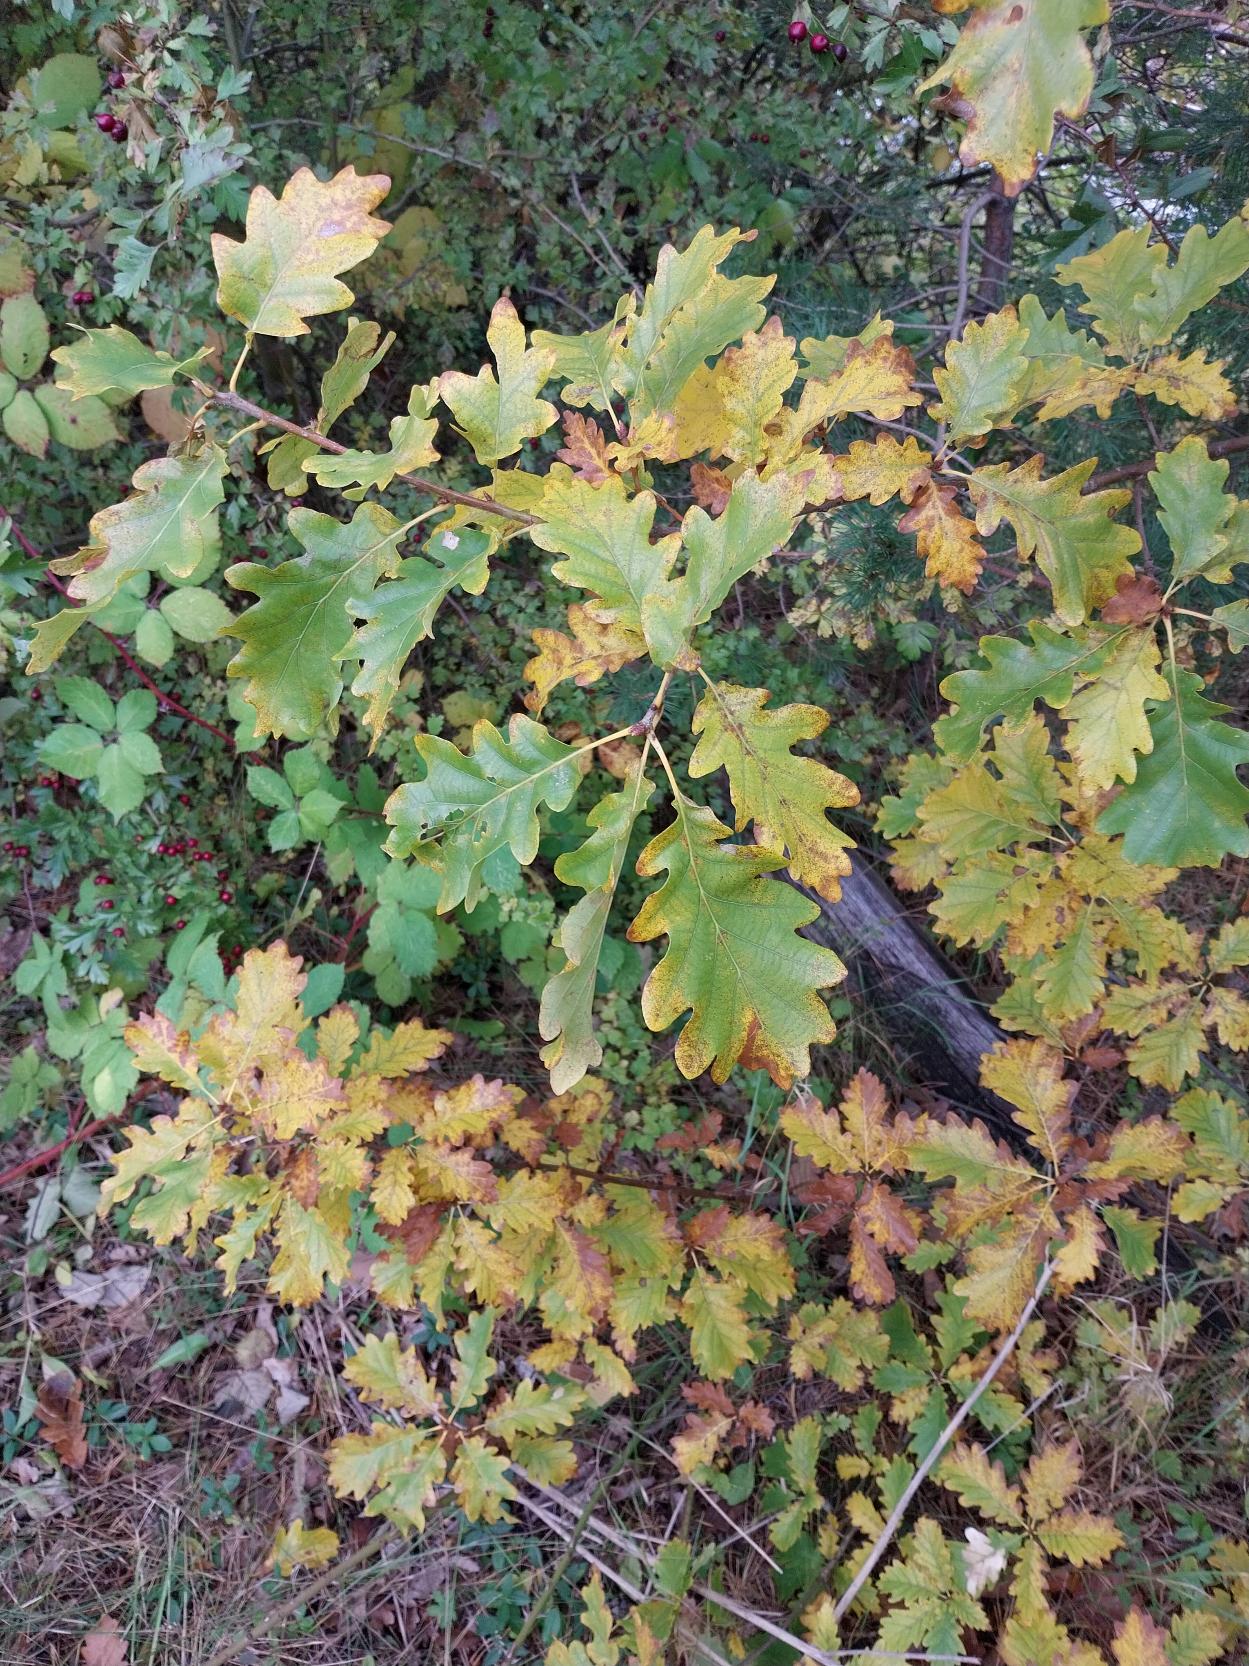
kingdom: Plantae
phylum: Tracheophyta
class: Magnoliopsida
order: Fagales
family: Fagaceae
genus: Quercus
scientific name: Quercus petraea
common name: Vinter-eg
